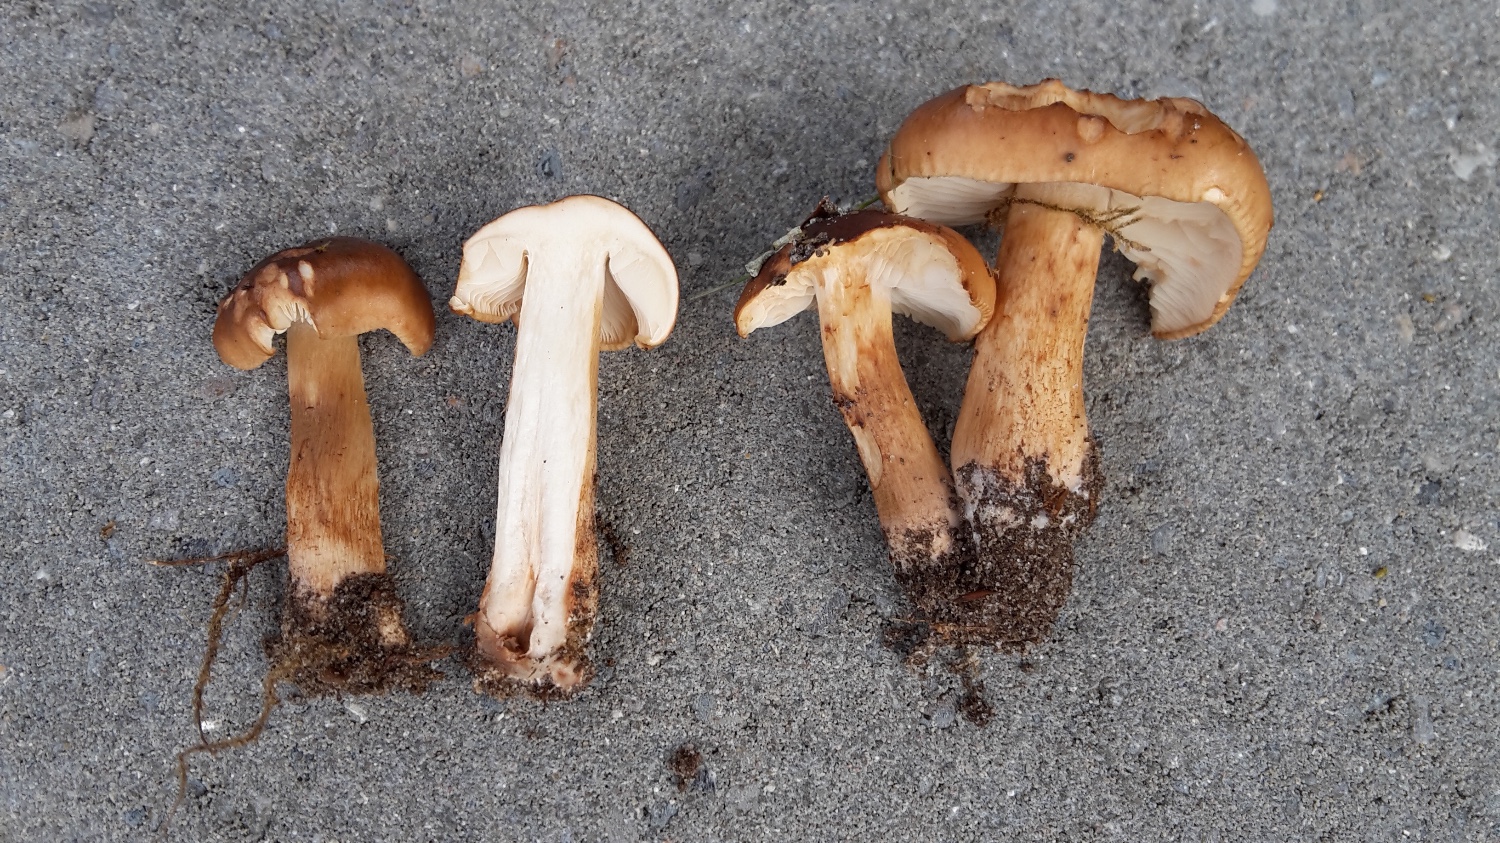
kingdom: Fungi
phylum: Basidiomycota
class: Agaricomycetes
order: Agaricales
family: Tricholomataceae
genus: Tricholoma
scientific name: Tricholoma ustale
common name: sveden ridderhat
